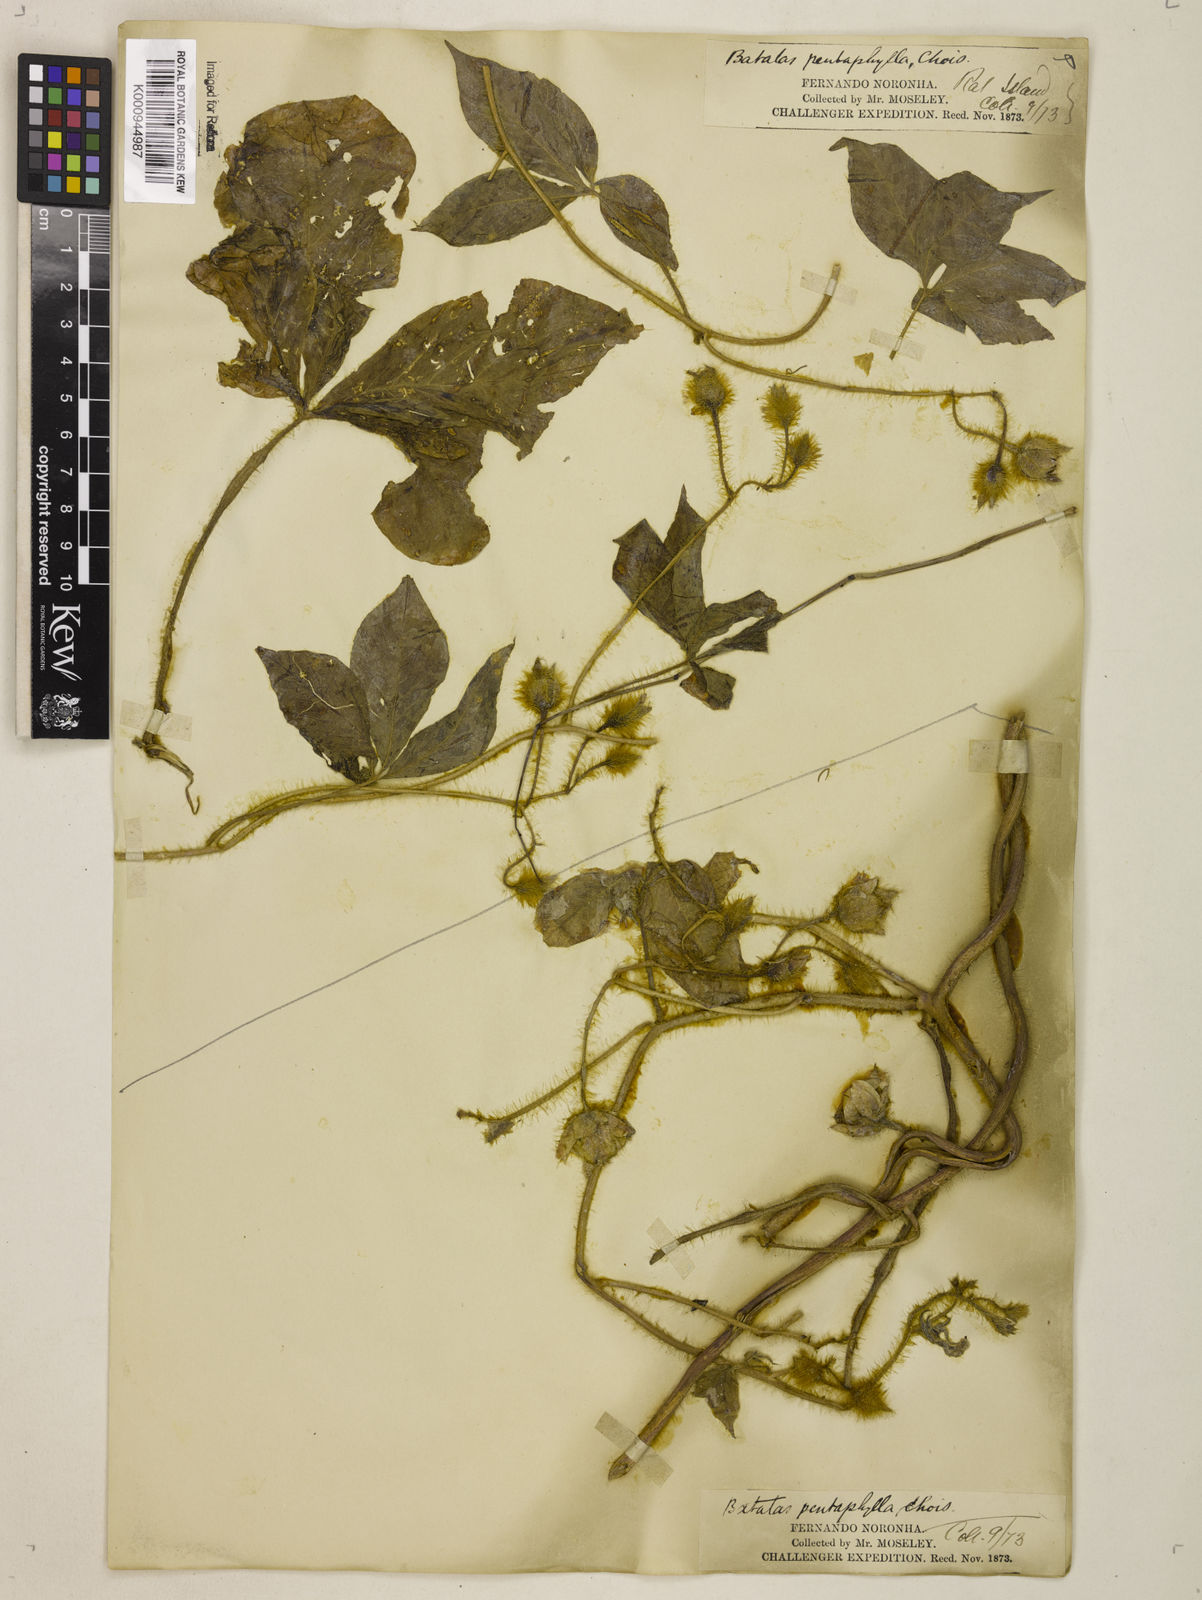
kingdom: Plantae
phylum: Tracheophyta
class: Magnoliopsida
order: Solanales
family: Convolvulaceae
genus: Distimake
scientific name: Distimake aegyptius
